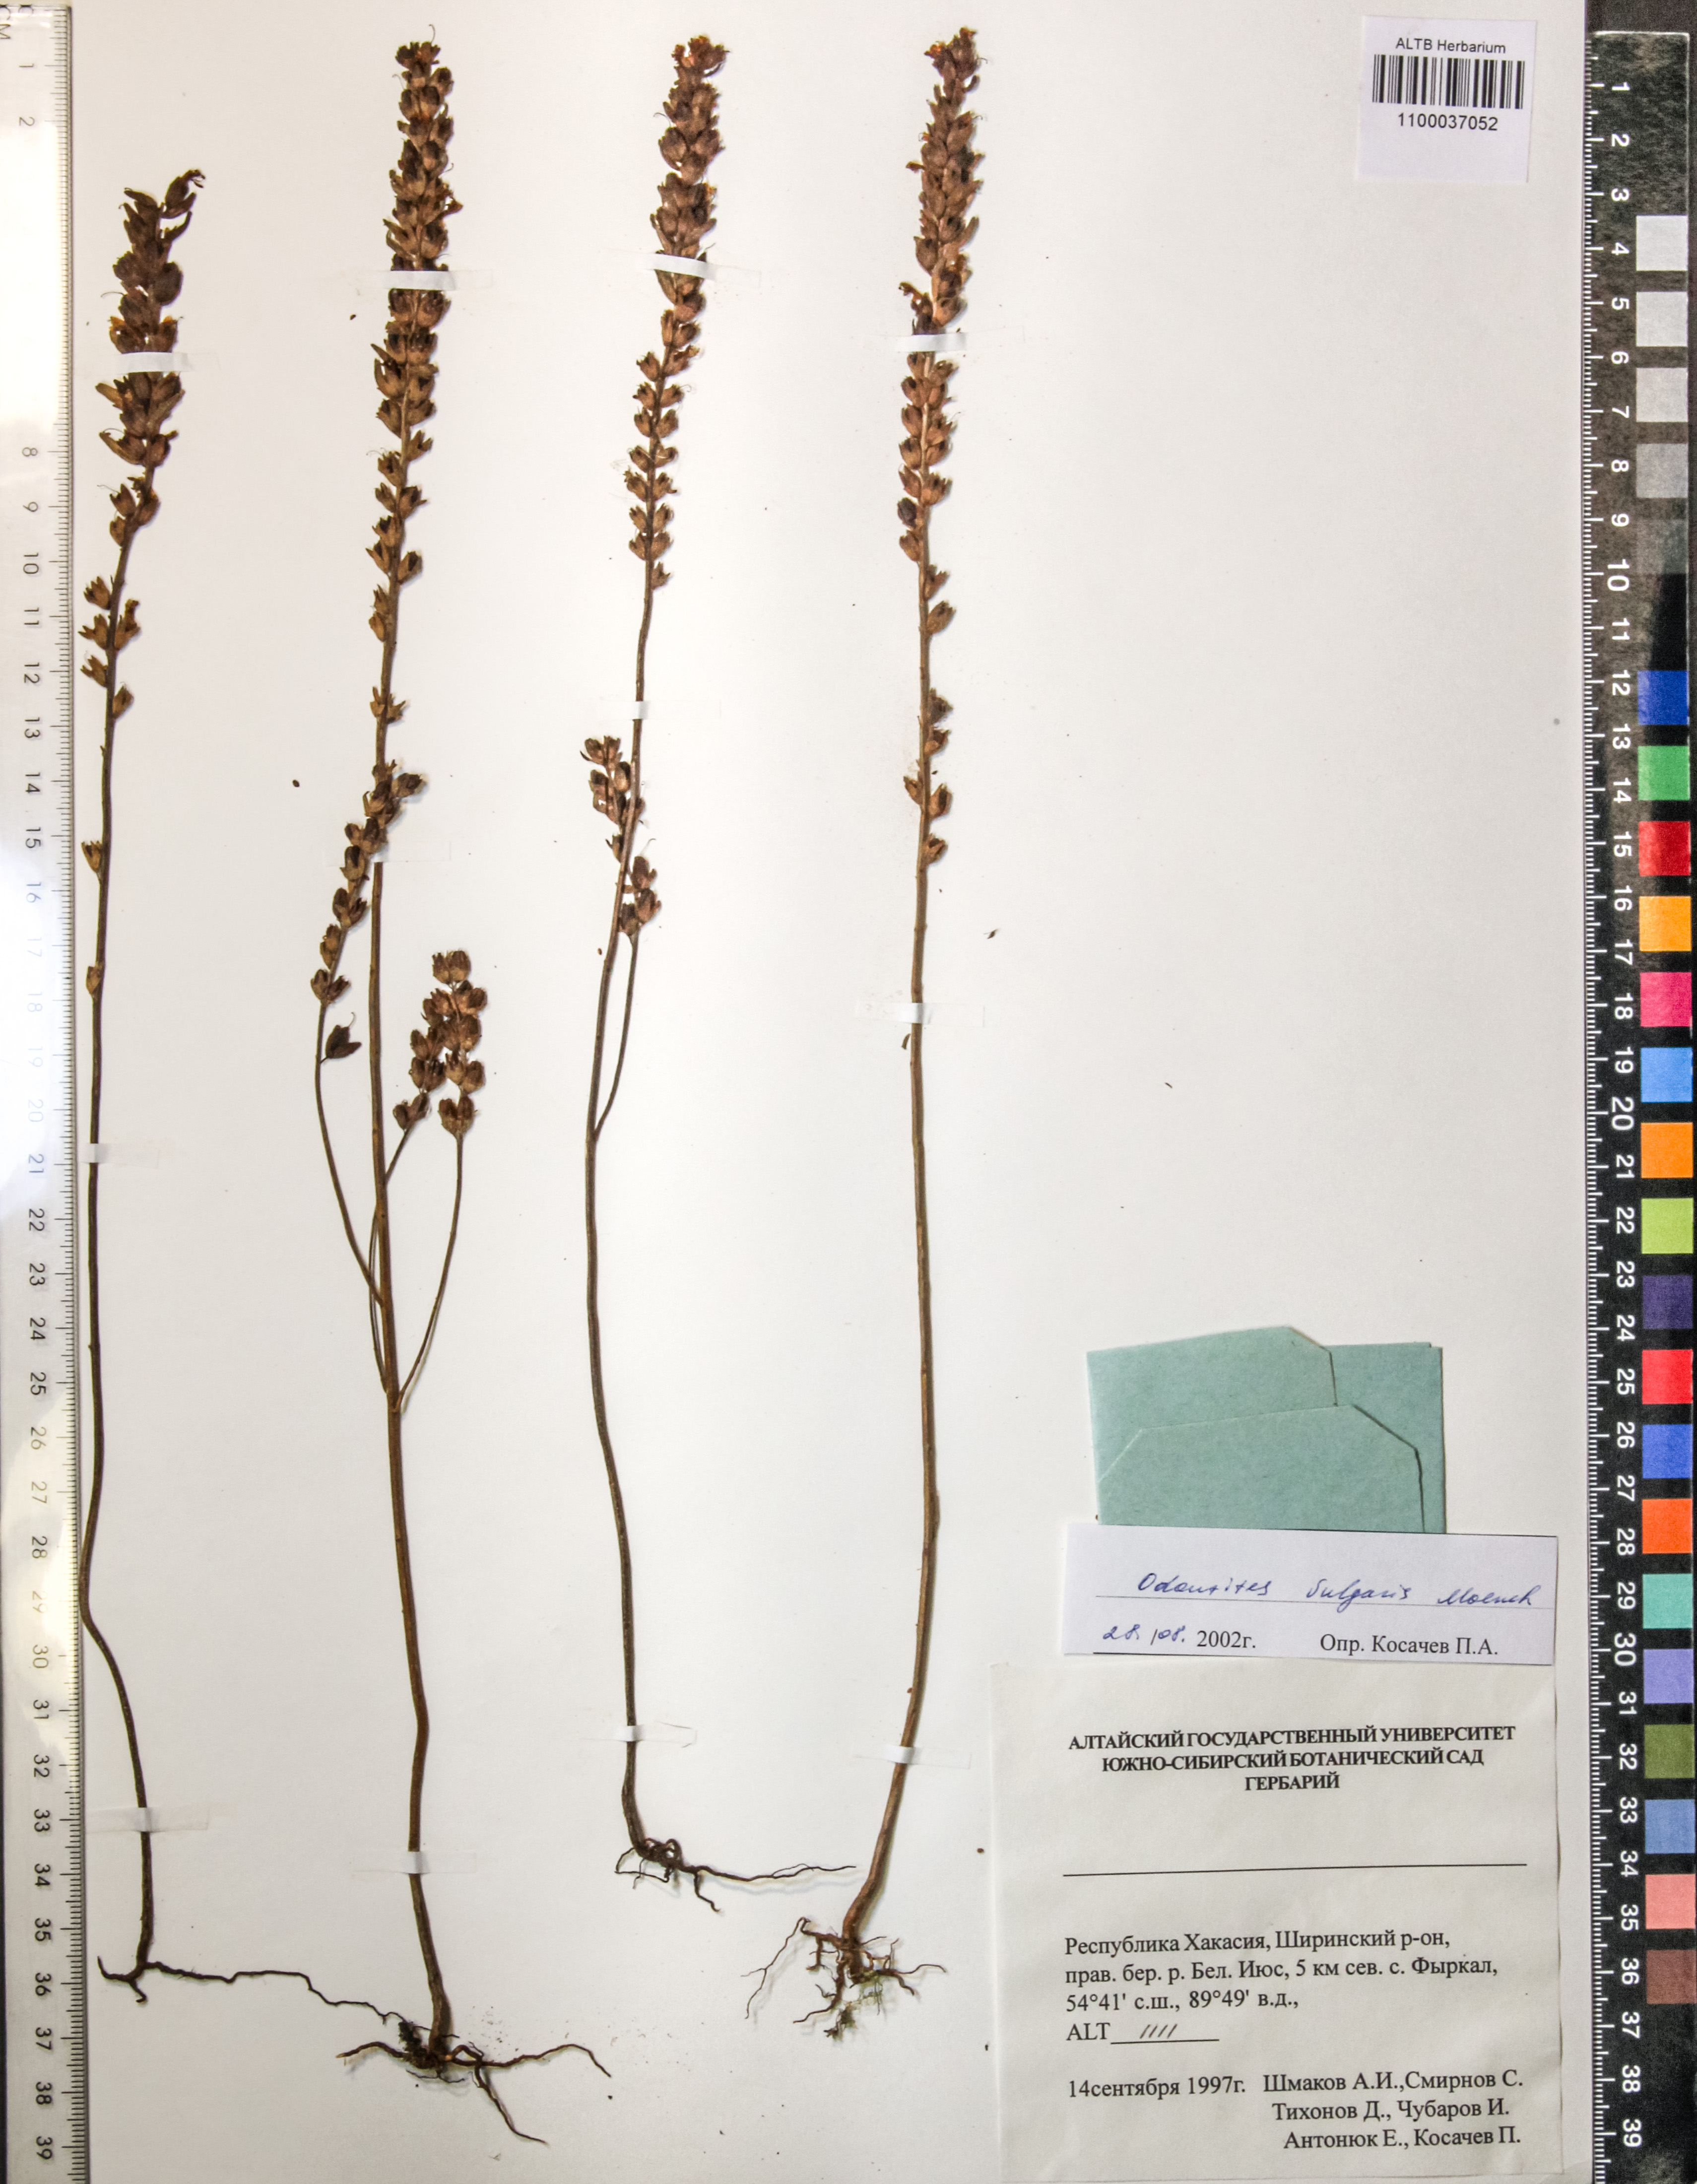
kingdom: Plantae
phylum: Tracheophyta
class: Magnoliopsida
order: Lamiales
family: Orobanchaceae
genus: Euphrasia
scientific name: Euphrasia pectinata
